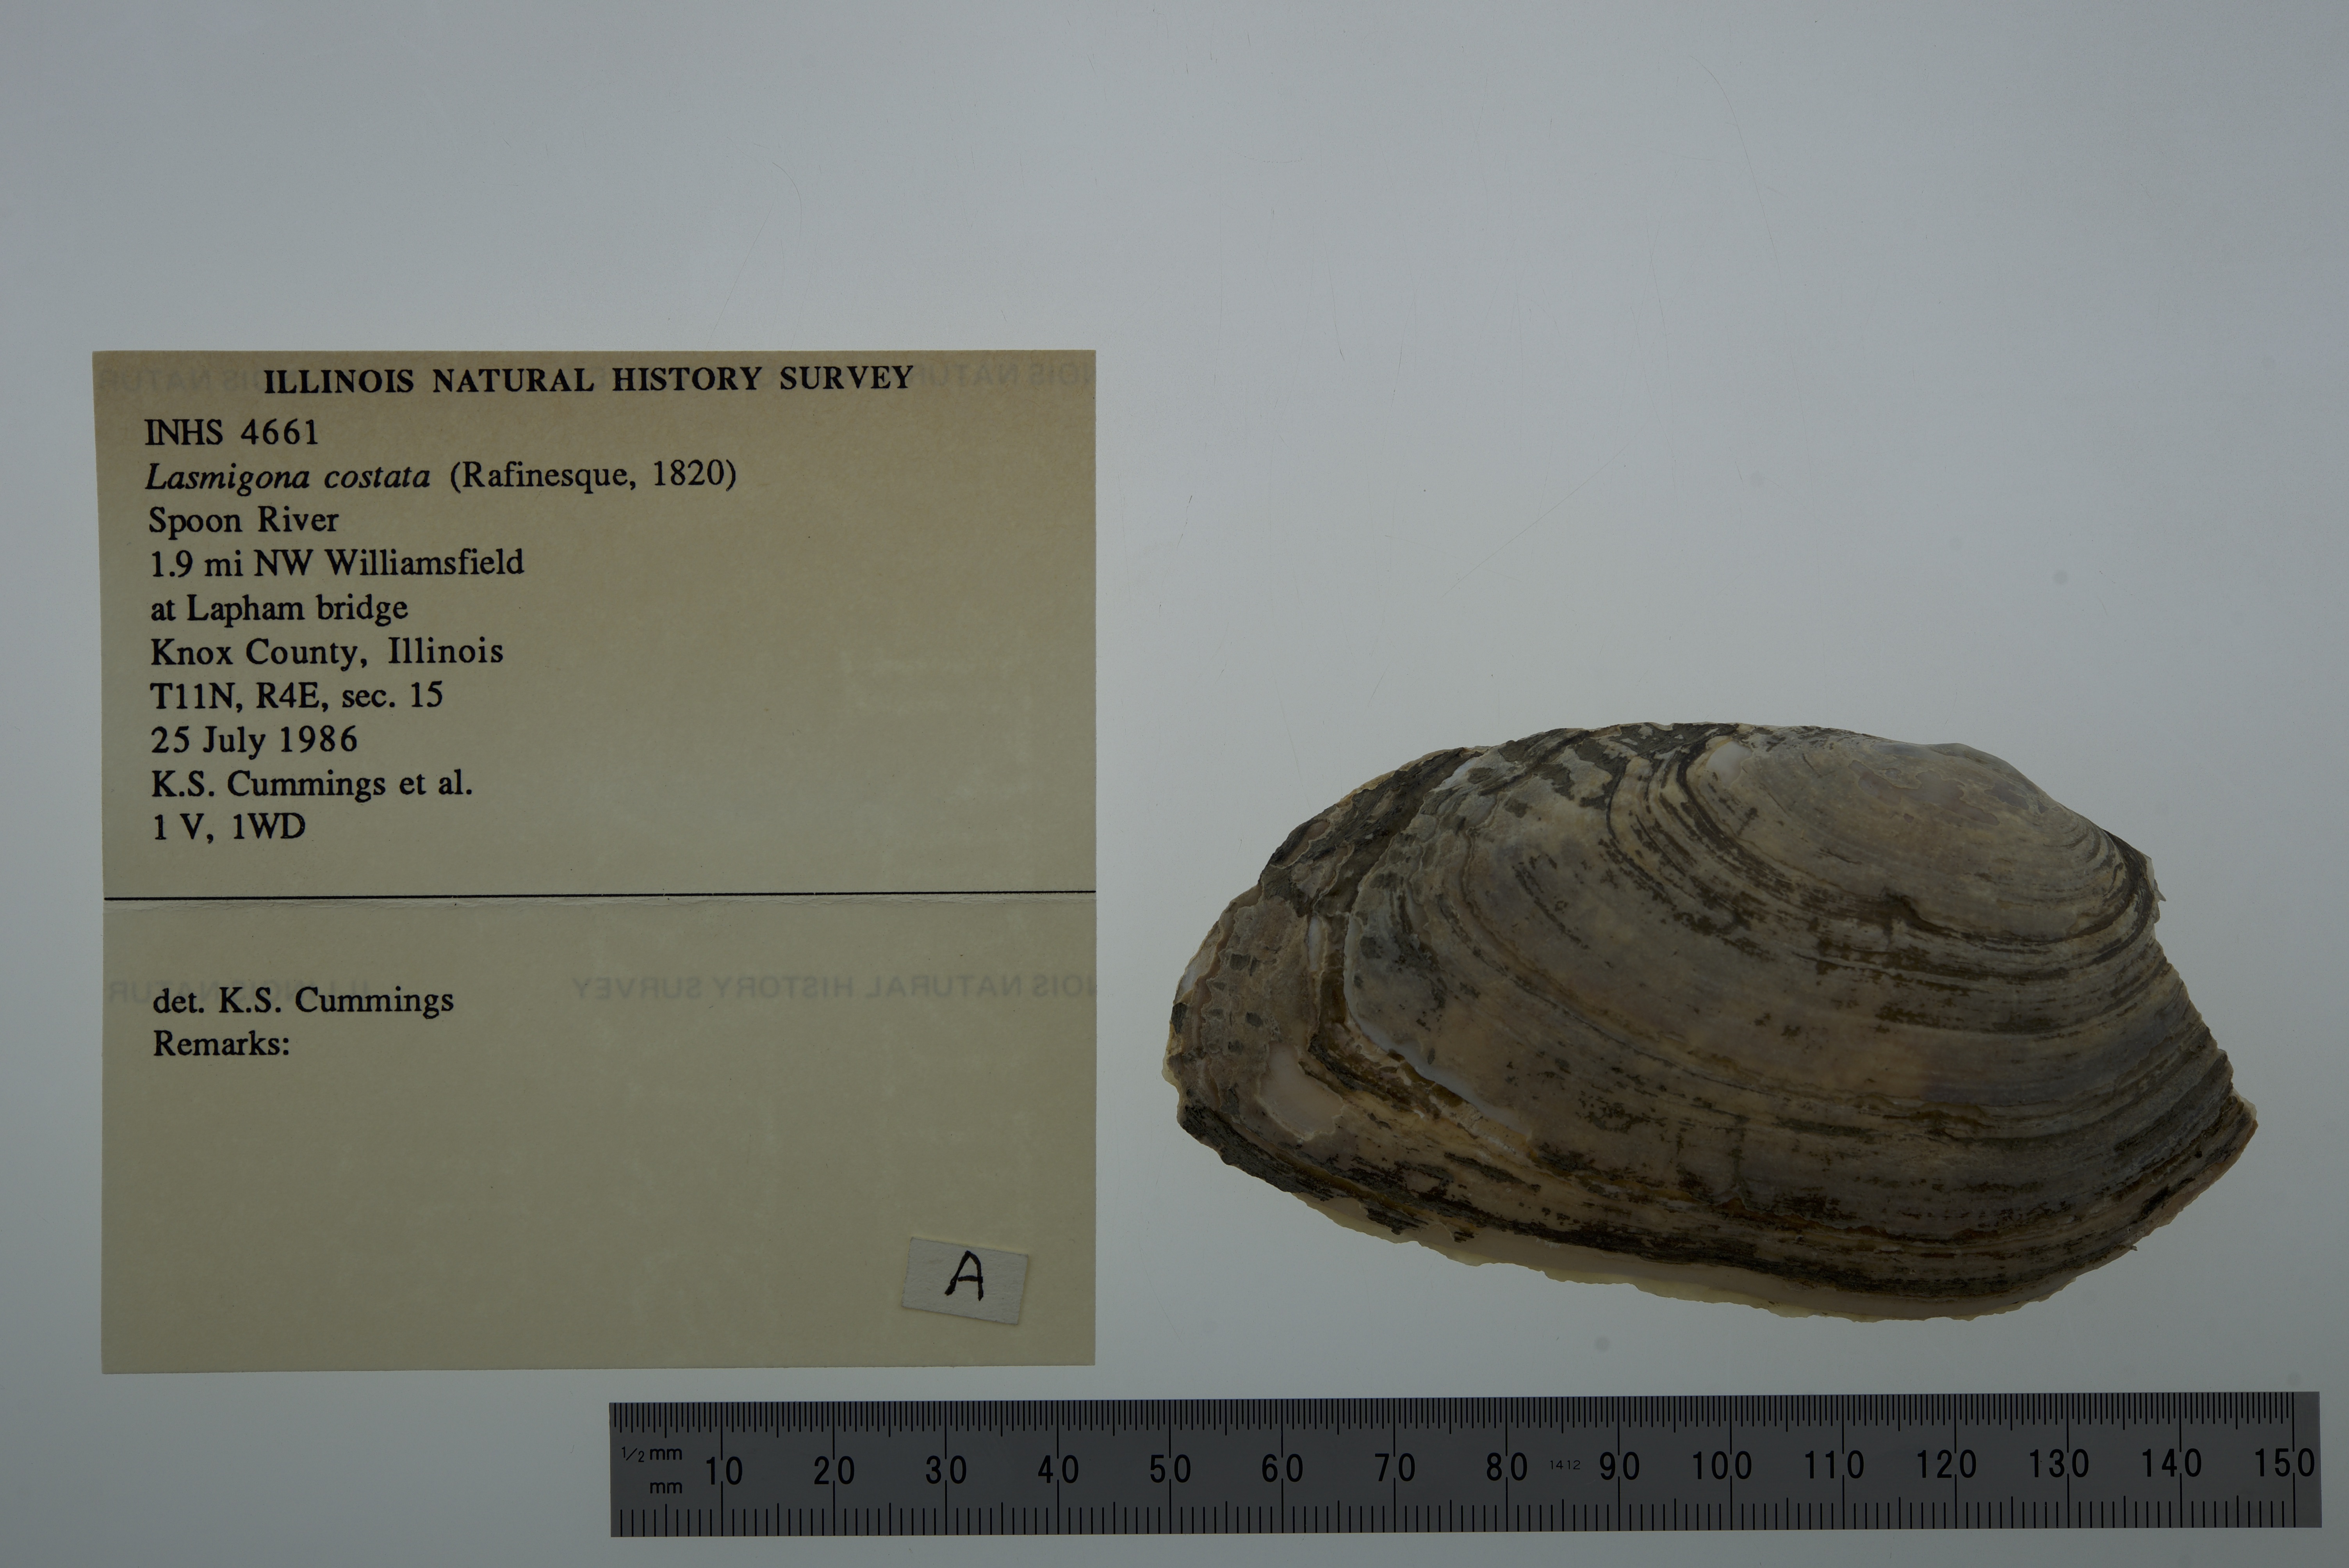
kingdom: Animalia
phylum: Mollusca
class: Bivalvia
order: Unionida
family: Unionidae
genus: Lasmigona
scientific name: Lasmigona costata
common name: Flutedshell
